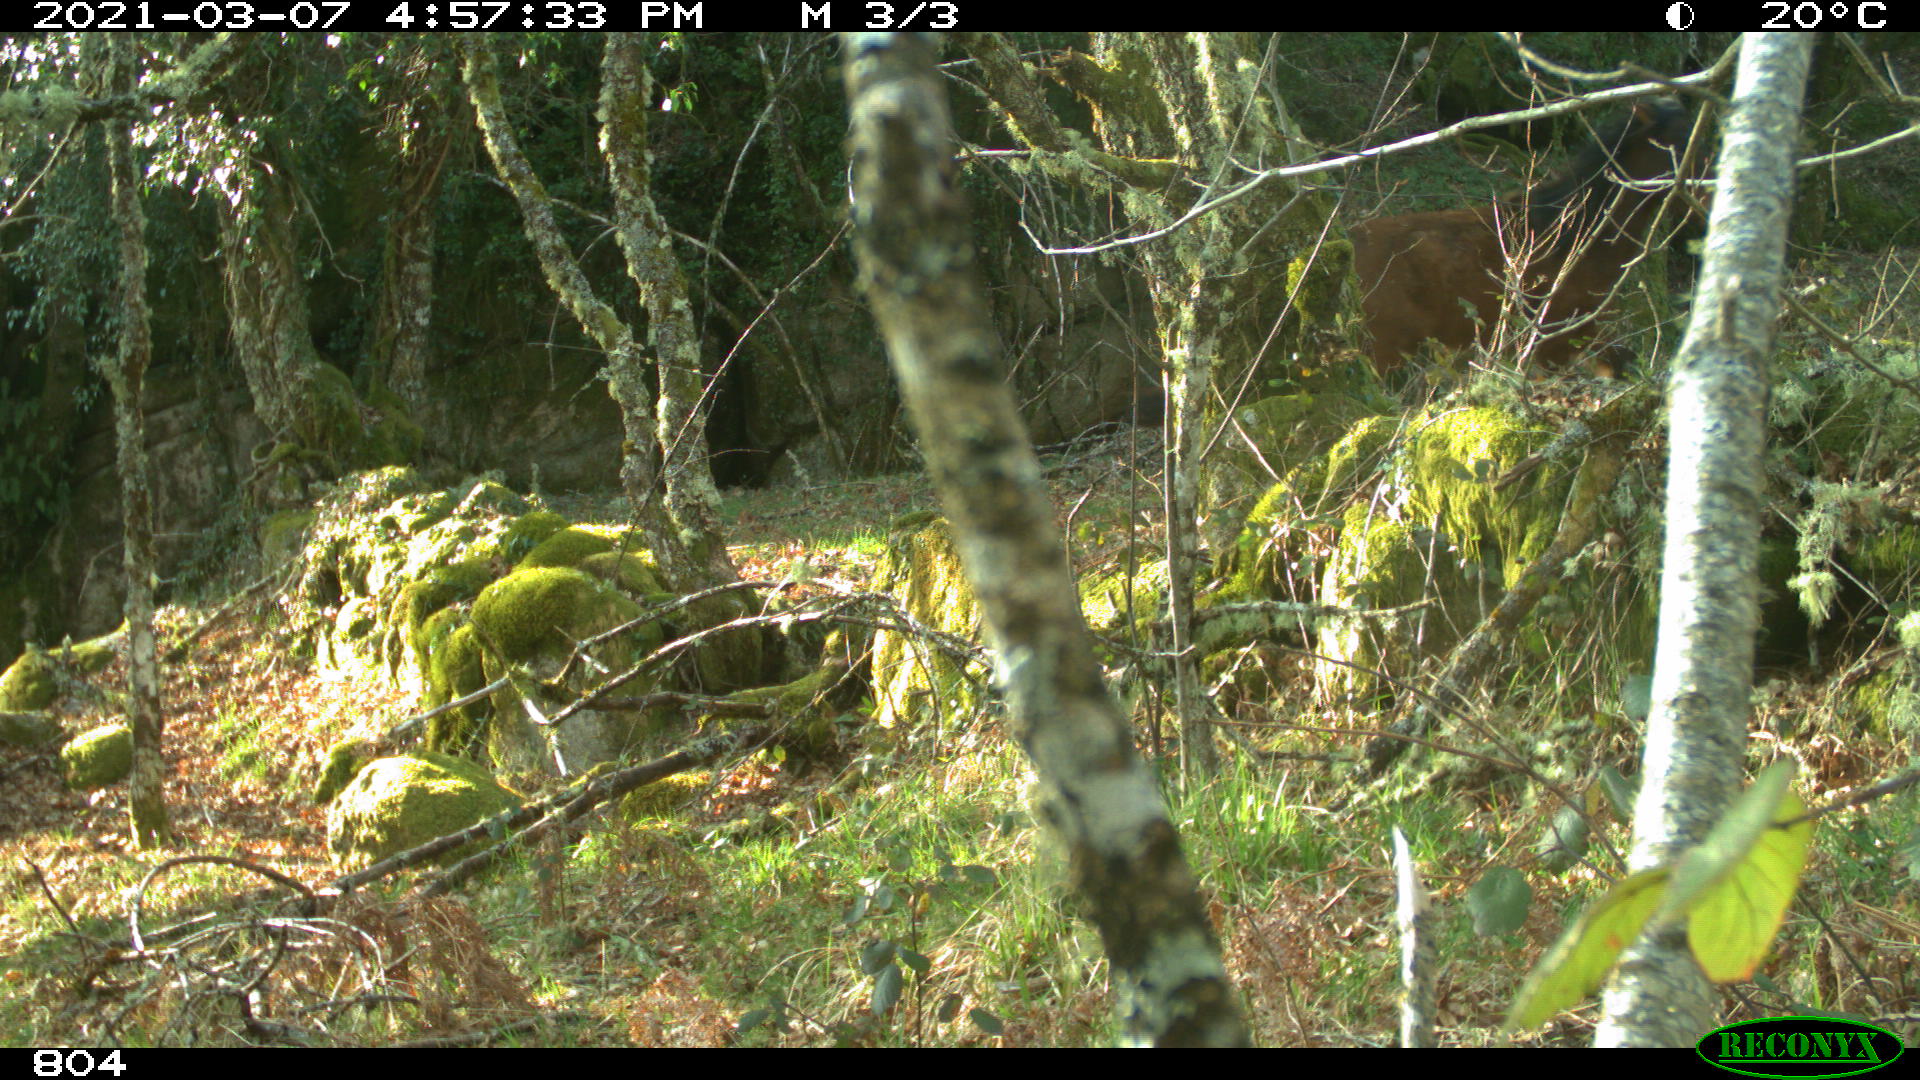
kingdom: Animalia
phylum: Chordata
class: Mammalia
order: Perissodactyla
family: Equidae
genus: Equus
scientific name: Equus caballus
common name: Horse
